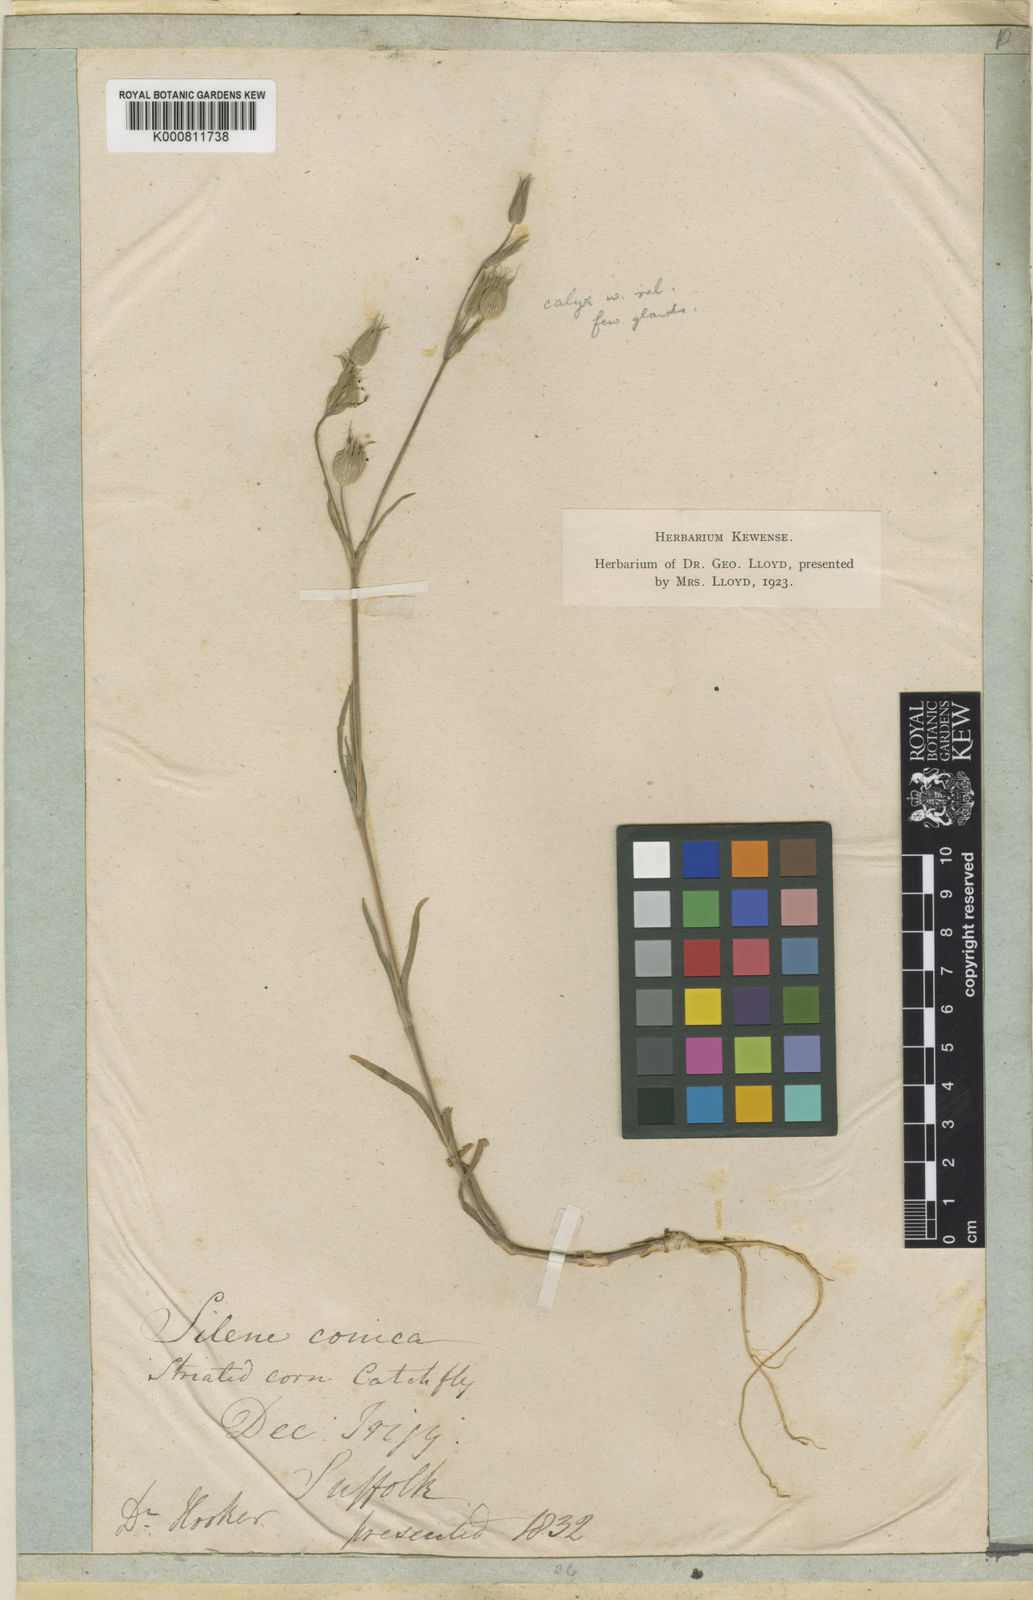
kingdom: Plantae
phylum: Tracheophyta
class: Magnoliopsida
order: Caryophyllales
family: Caryophyllaceae
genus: Silene
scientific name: Silene conica
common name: Sand catchfly
